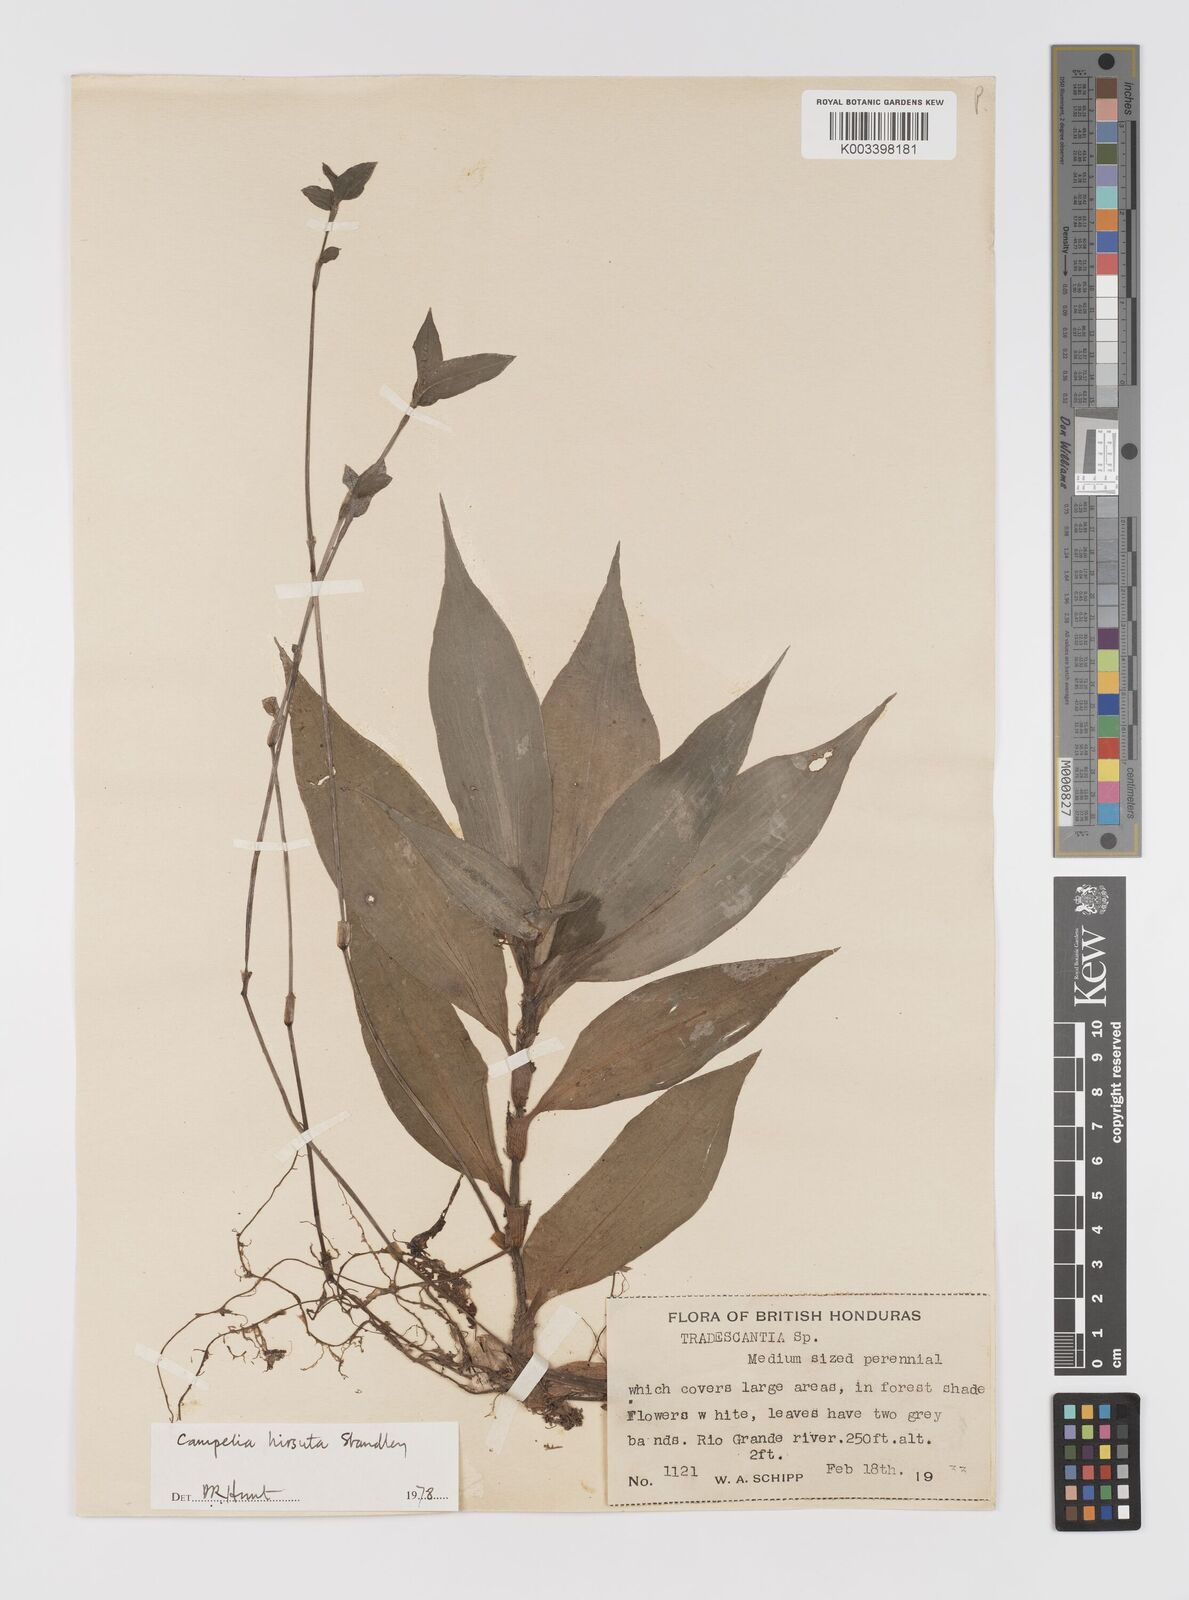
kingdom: Plantae
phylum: Tracheophyta
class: Liliopsida
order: Commelinales
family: Commelinaceae
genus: Tradescantia
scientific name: Tradescantia schippii
